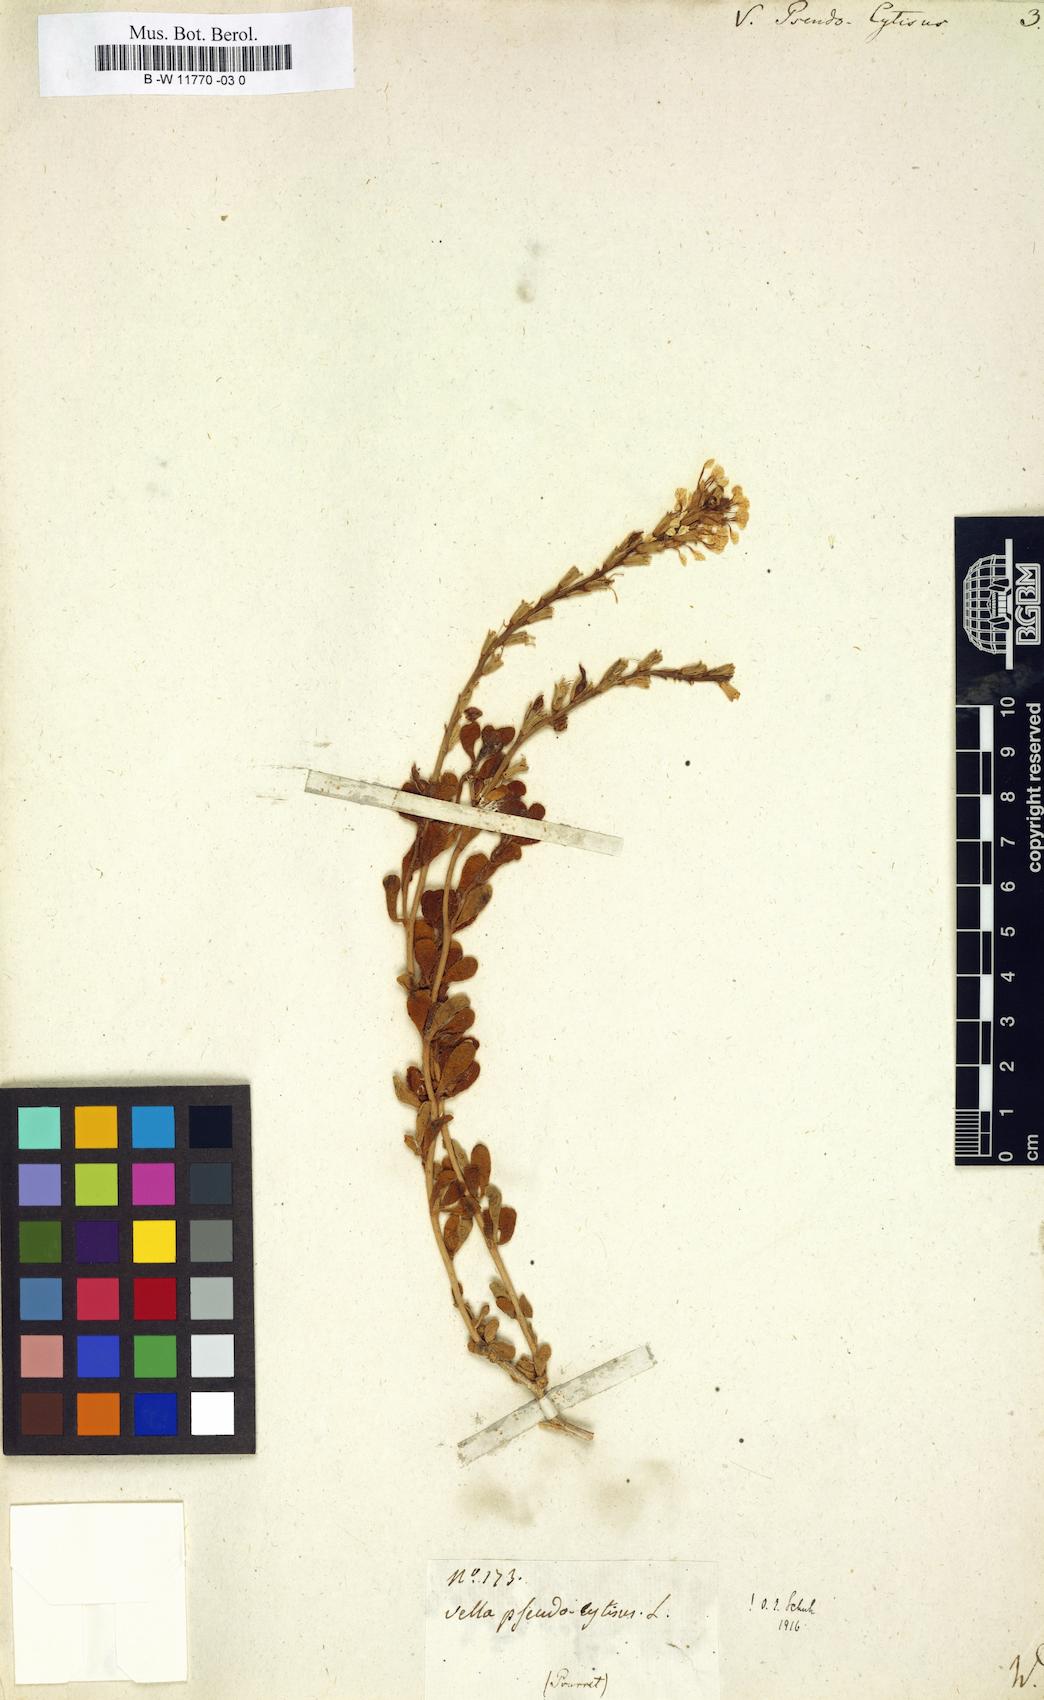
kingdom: Plantae
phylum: Tracheophyta
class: Magnoliopsida
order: Brassicales
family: Brassicaceae
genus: Vella
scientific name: Vella pseudocytisus
